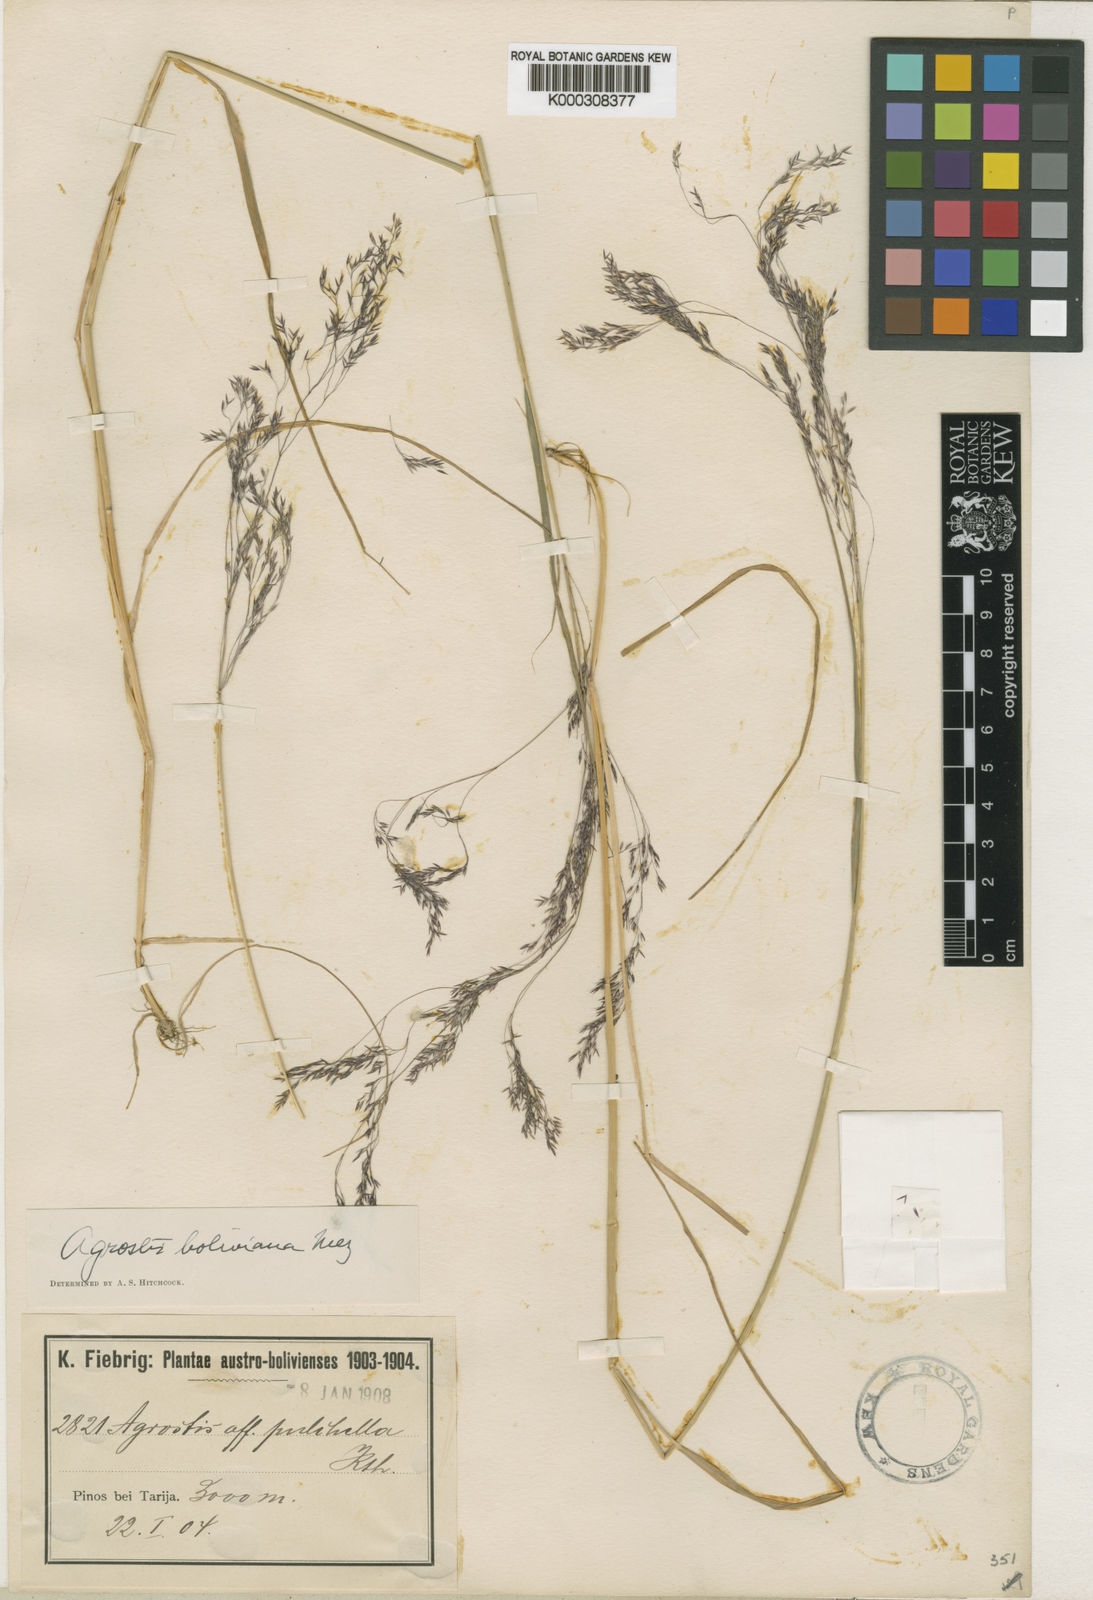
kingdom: Plantae
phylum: Tracheophyta
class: Liliopsida
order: Poales
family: Poaceae
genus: Agrostis
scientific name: Agrostis mertensii
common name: Northern bent
